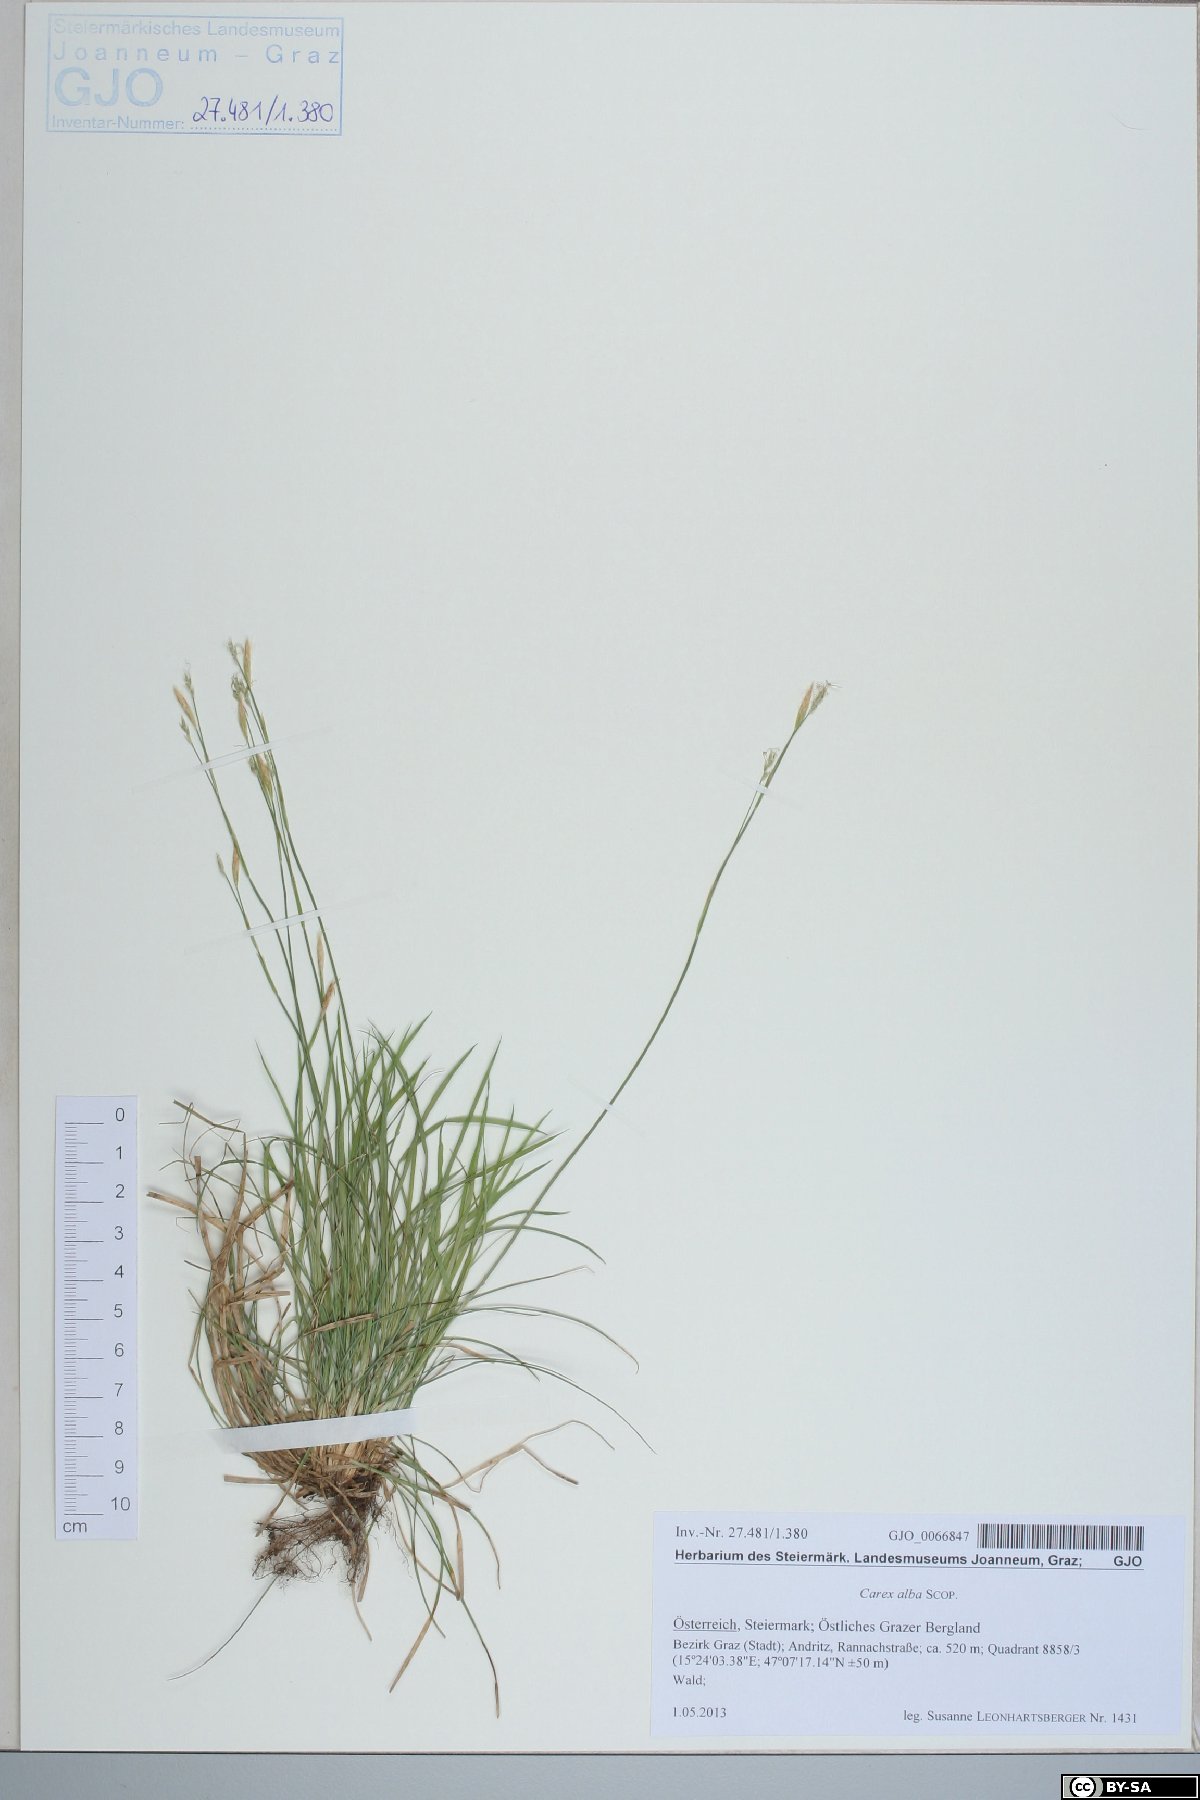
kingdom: Plantae
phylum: Tracheophyta
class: Liliopsida
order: Poales
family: Cyperaceae
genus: Carex
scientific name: Carex alba
